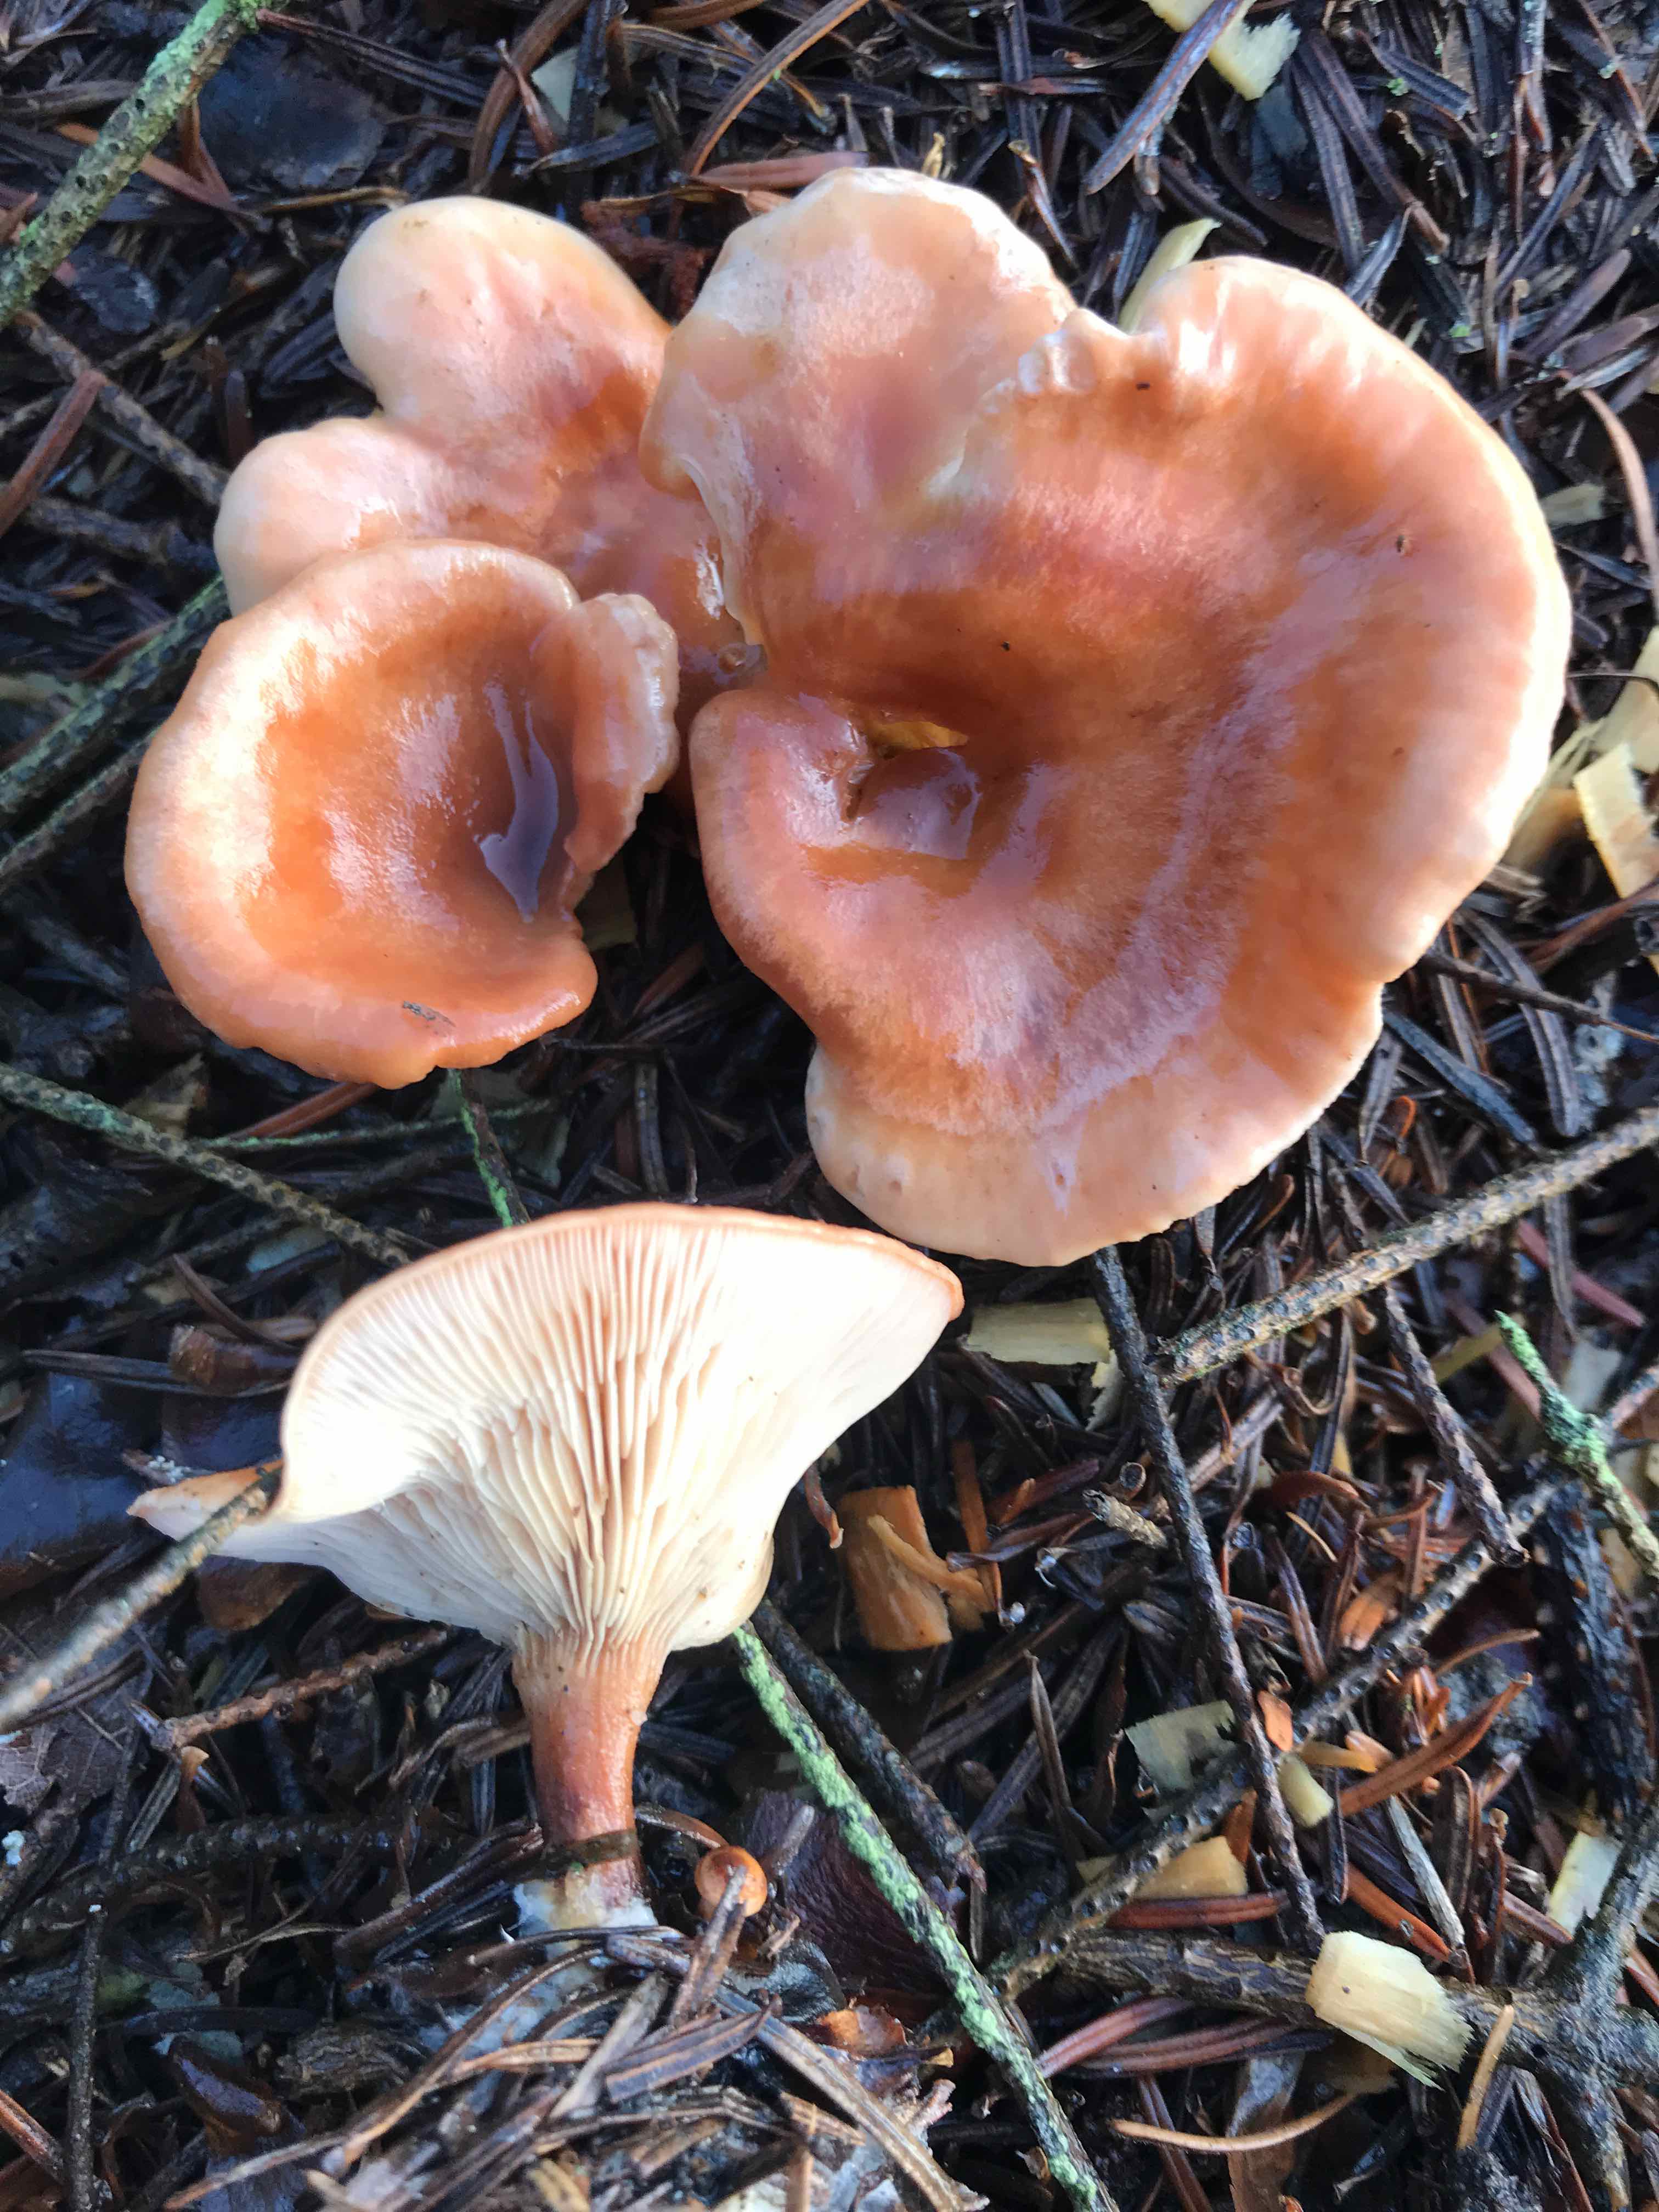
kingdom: Fungi
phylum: Basidiomycota
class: Agaricomycetes
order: Agaricales
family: Tricholomataceae
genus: Paralepista
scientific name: Paralepista flaccida
